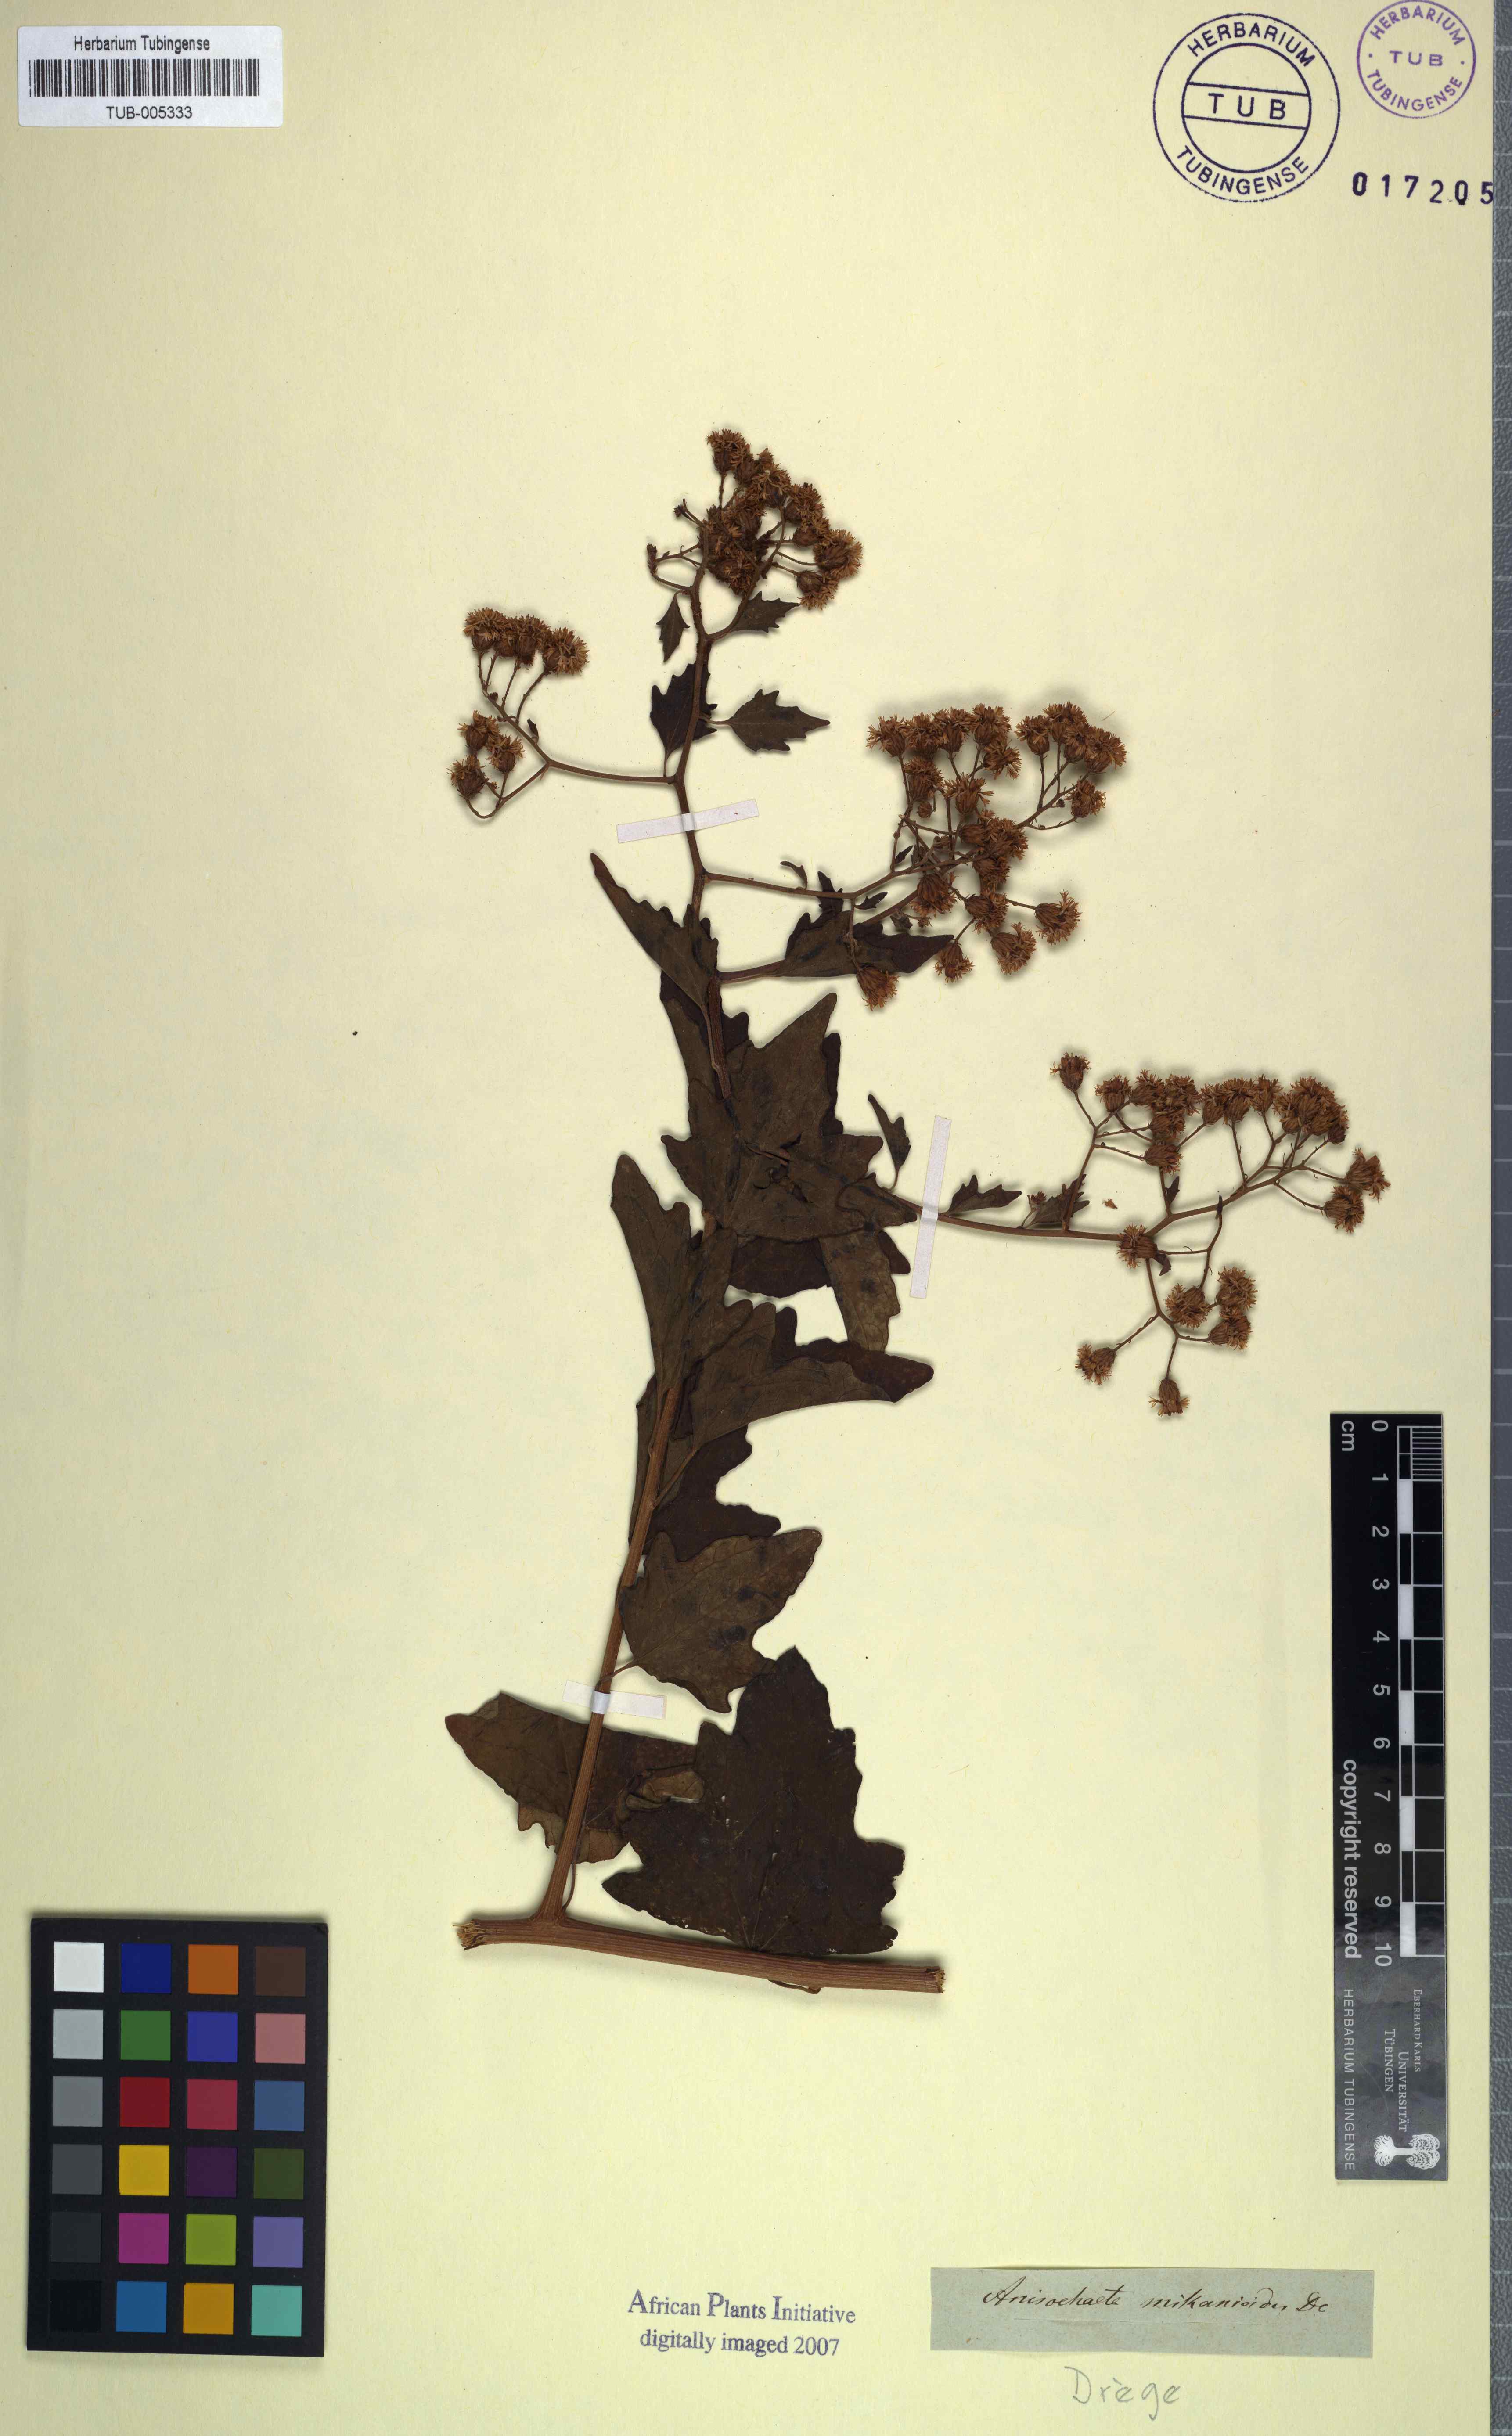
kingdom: Plantae
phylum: Tracheophyta
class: Magnoliopsida
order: Asterales
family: Asteraceae
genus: Anisochaeta
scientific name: Anisochaeta mikanioides
